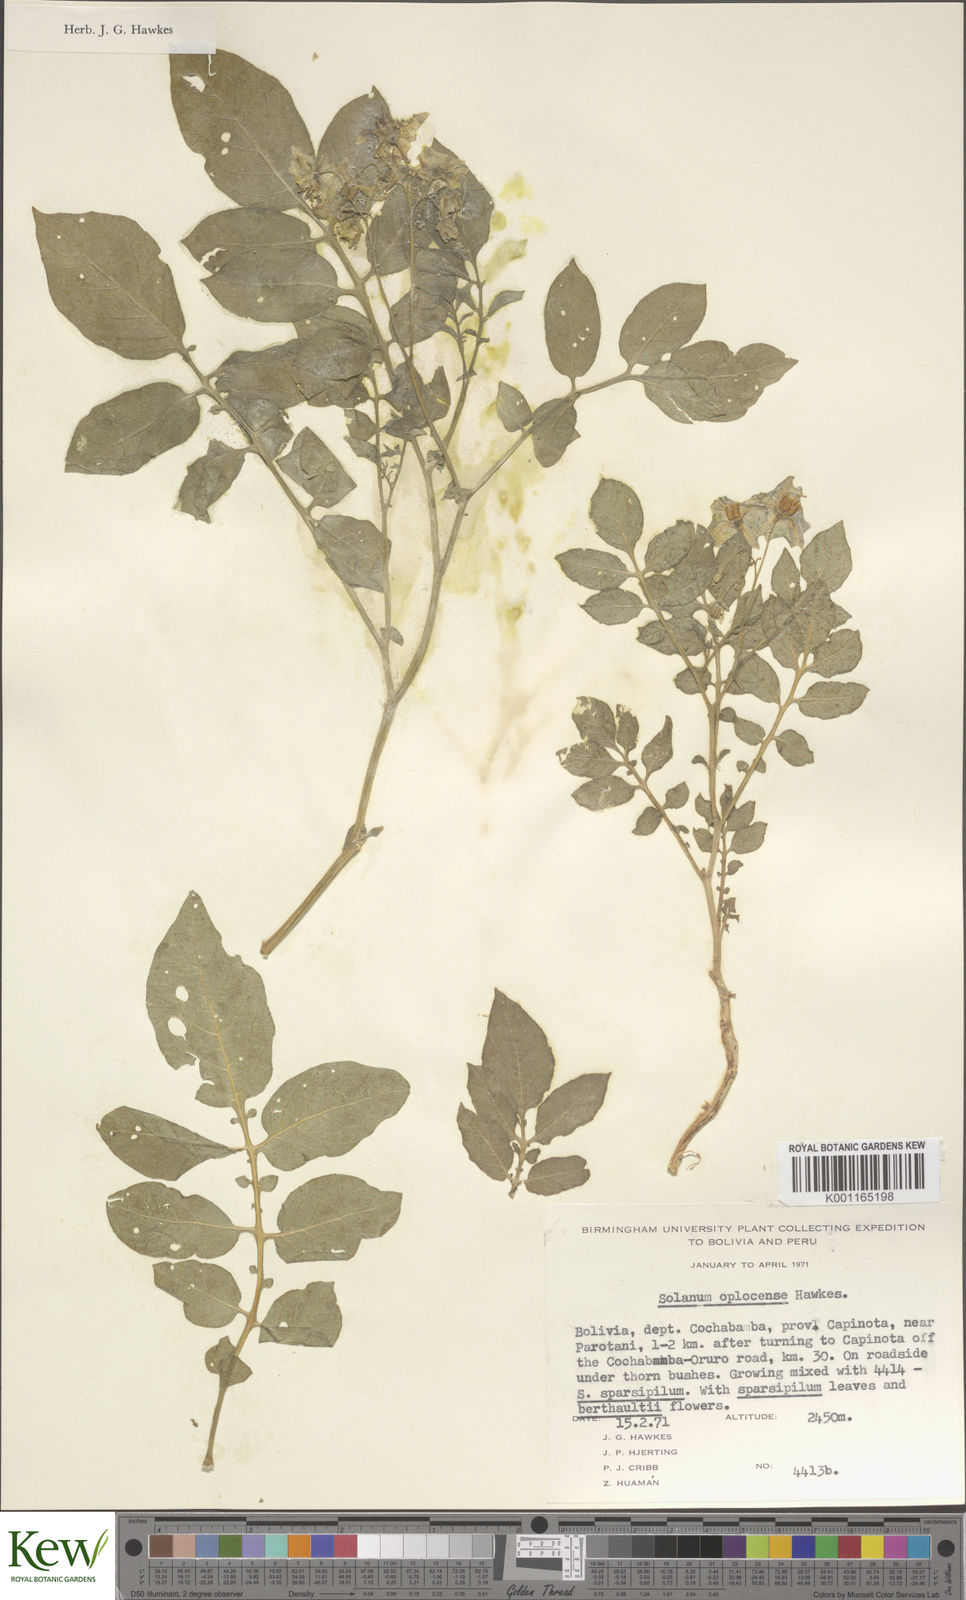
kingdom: Plantae
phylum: Tracheophyta
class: Magnoliopsida
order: Solanales
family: Solanaceae
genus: Solanum
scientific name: Solanum brevicaule
